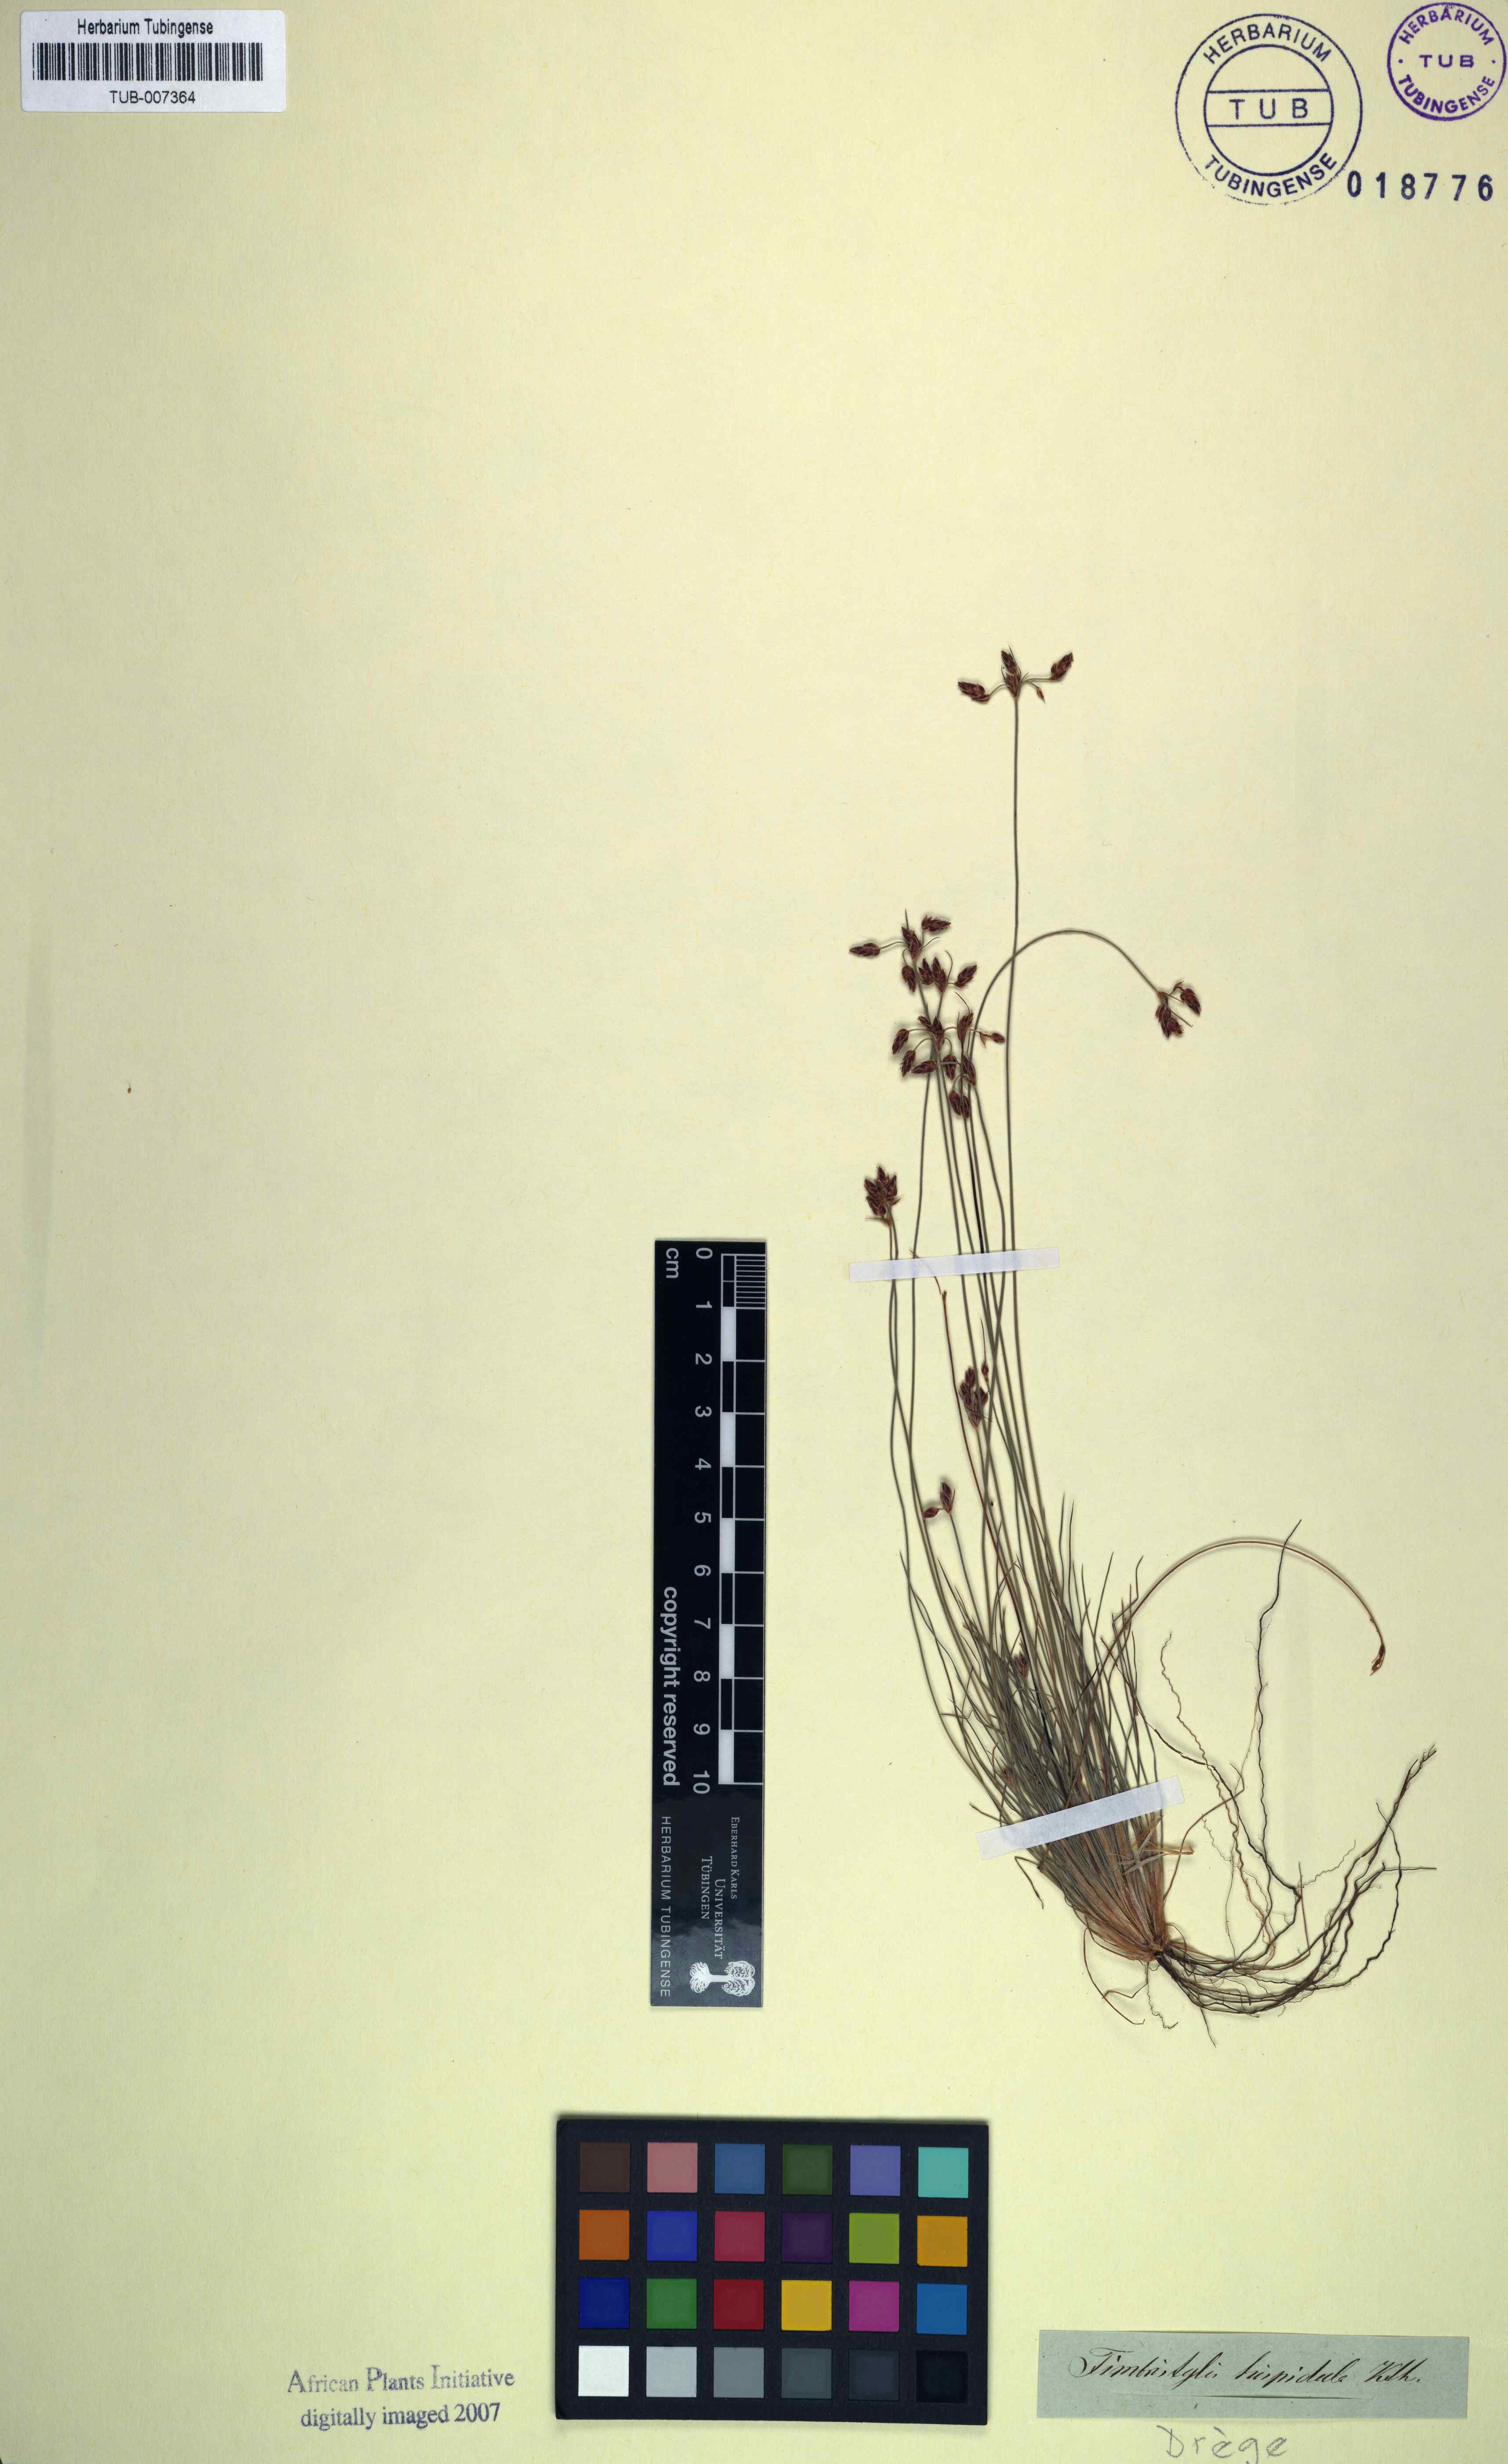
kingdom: Plantae
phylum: Tracheophyta
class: Liliopsida
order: Poales
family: Cyperaceae
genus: Bulbostylis
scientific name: Bulbostylis hispidula
